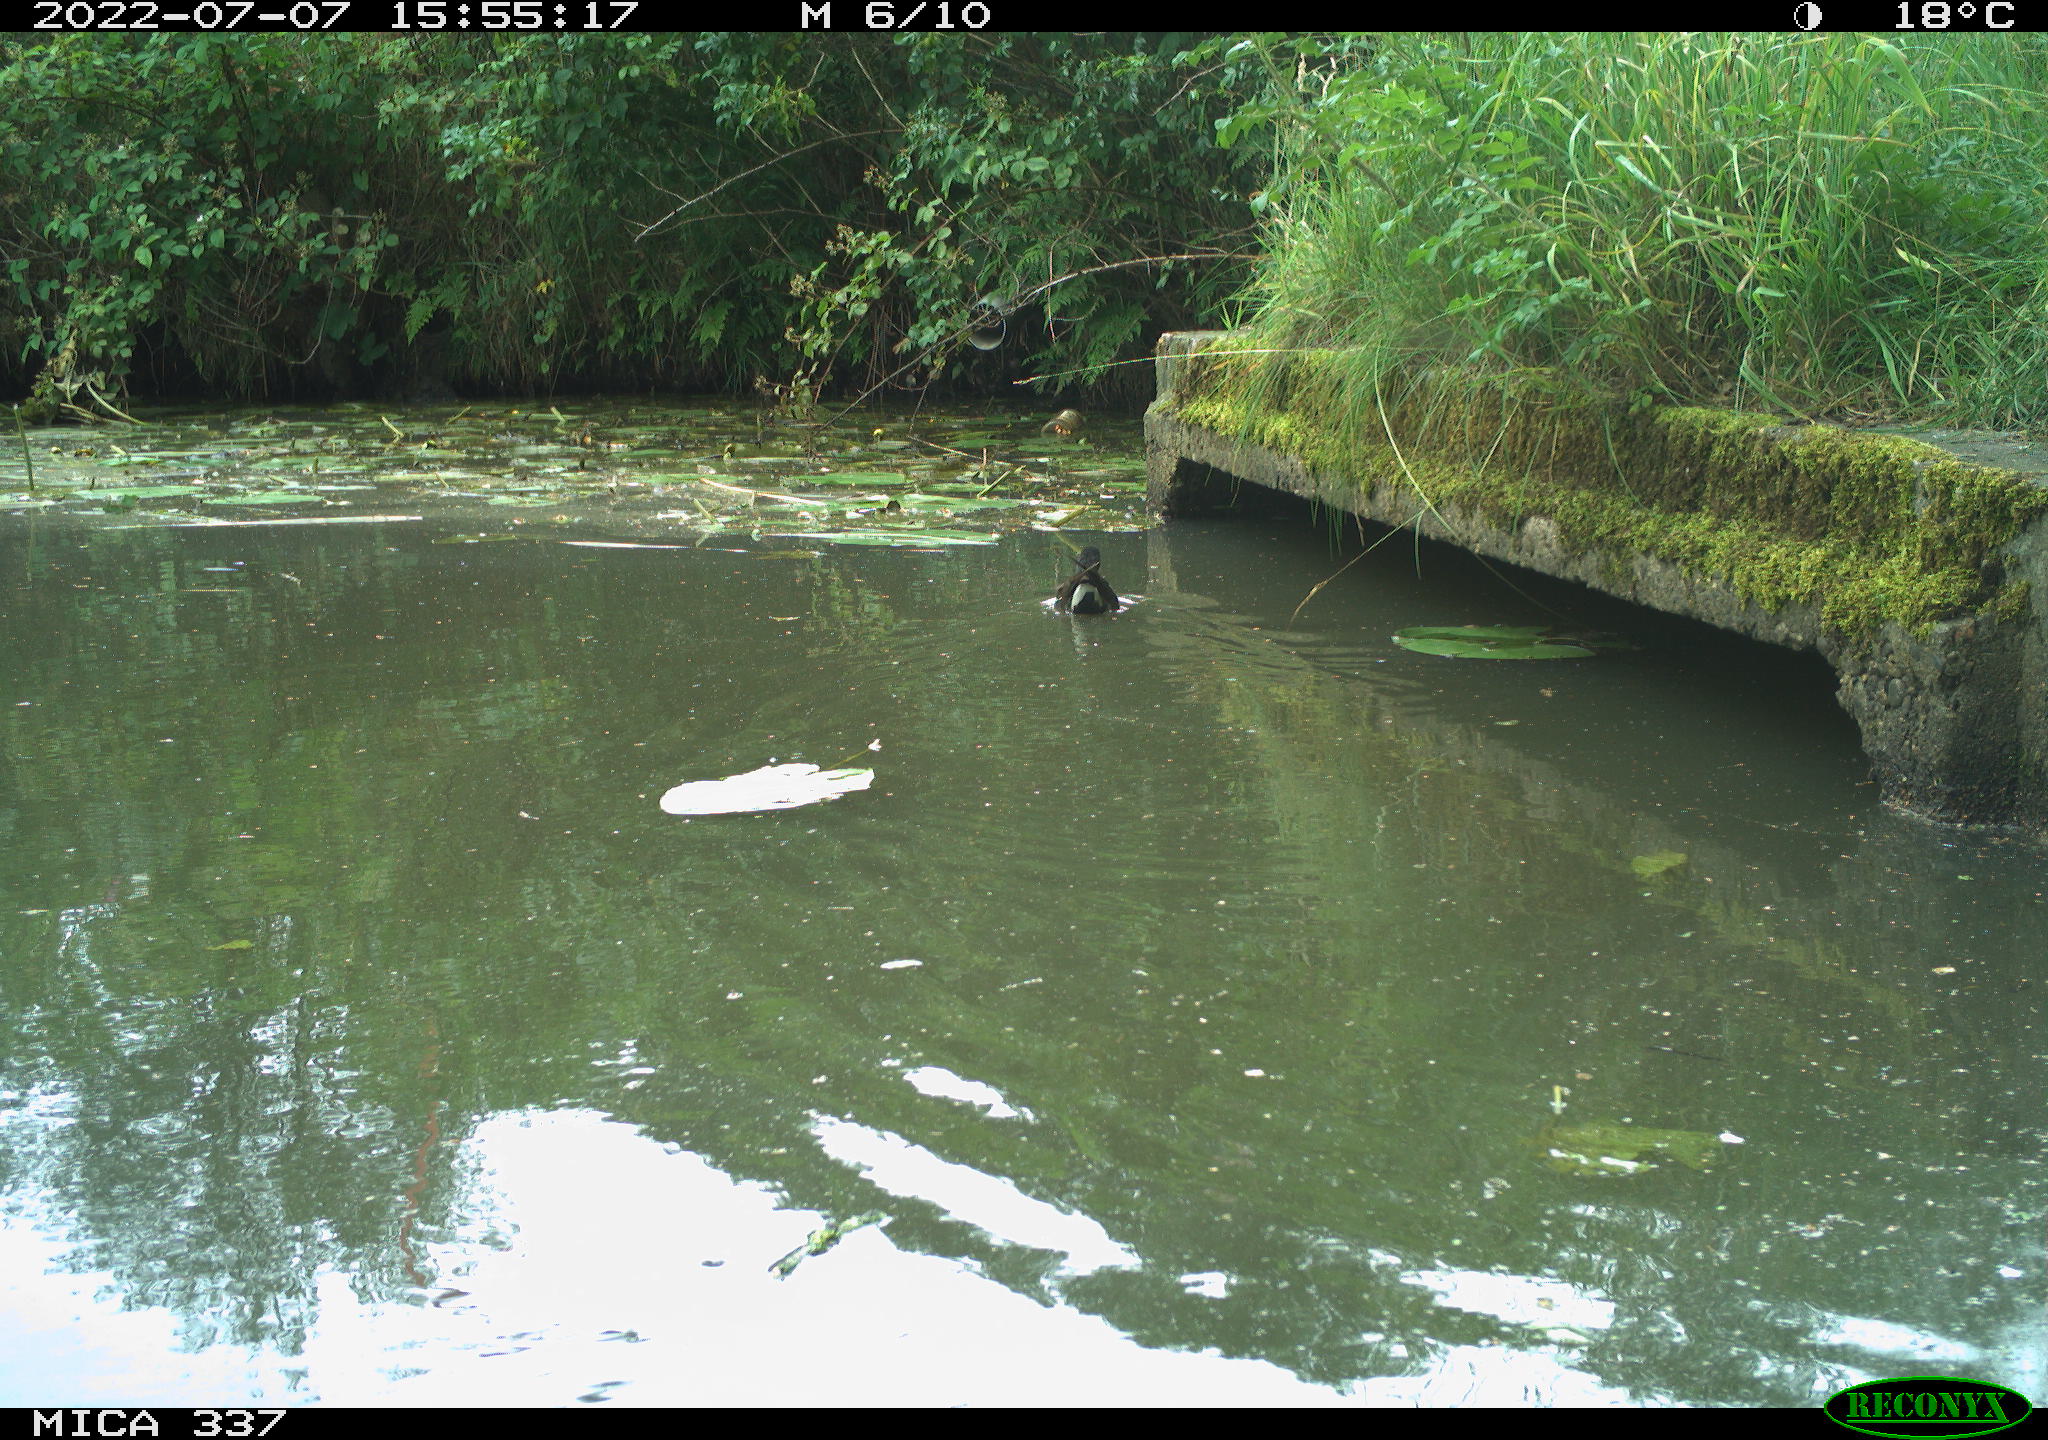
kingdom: Animalia
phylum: Chordata
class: Aves
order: Gruiformes
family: Rallidae
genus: Gallinula
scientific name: Gallinula chloropus
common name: Common moorhen
